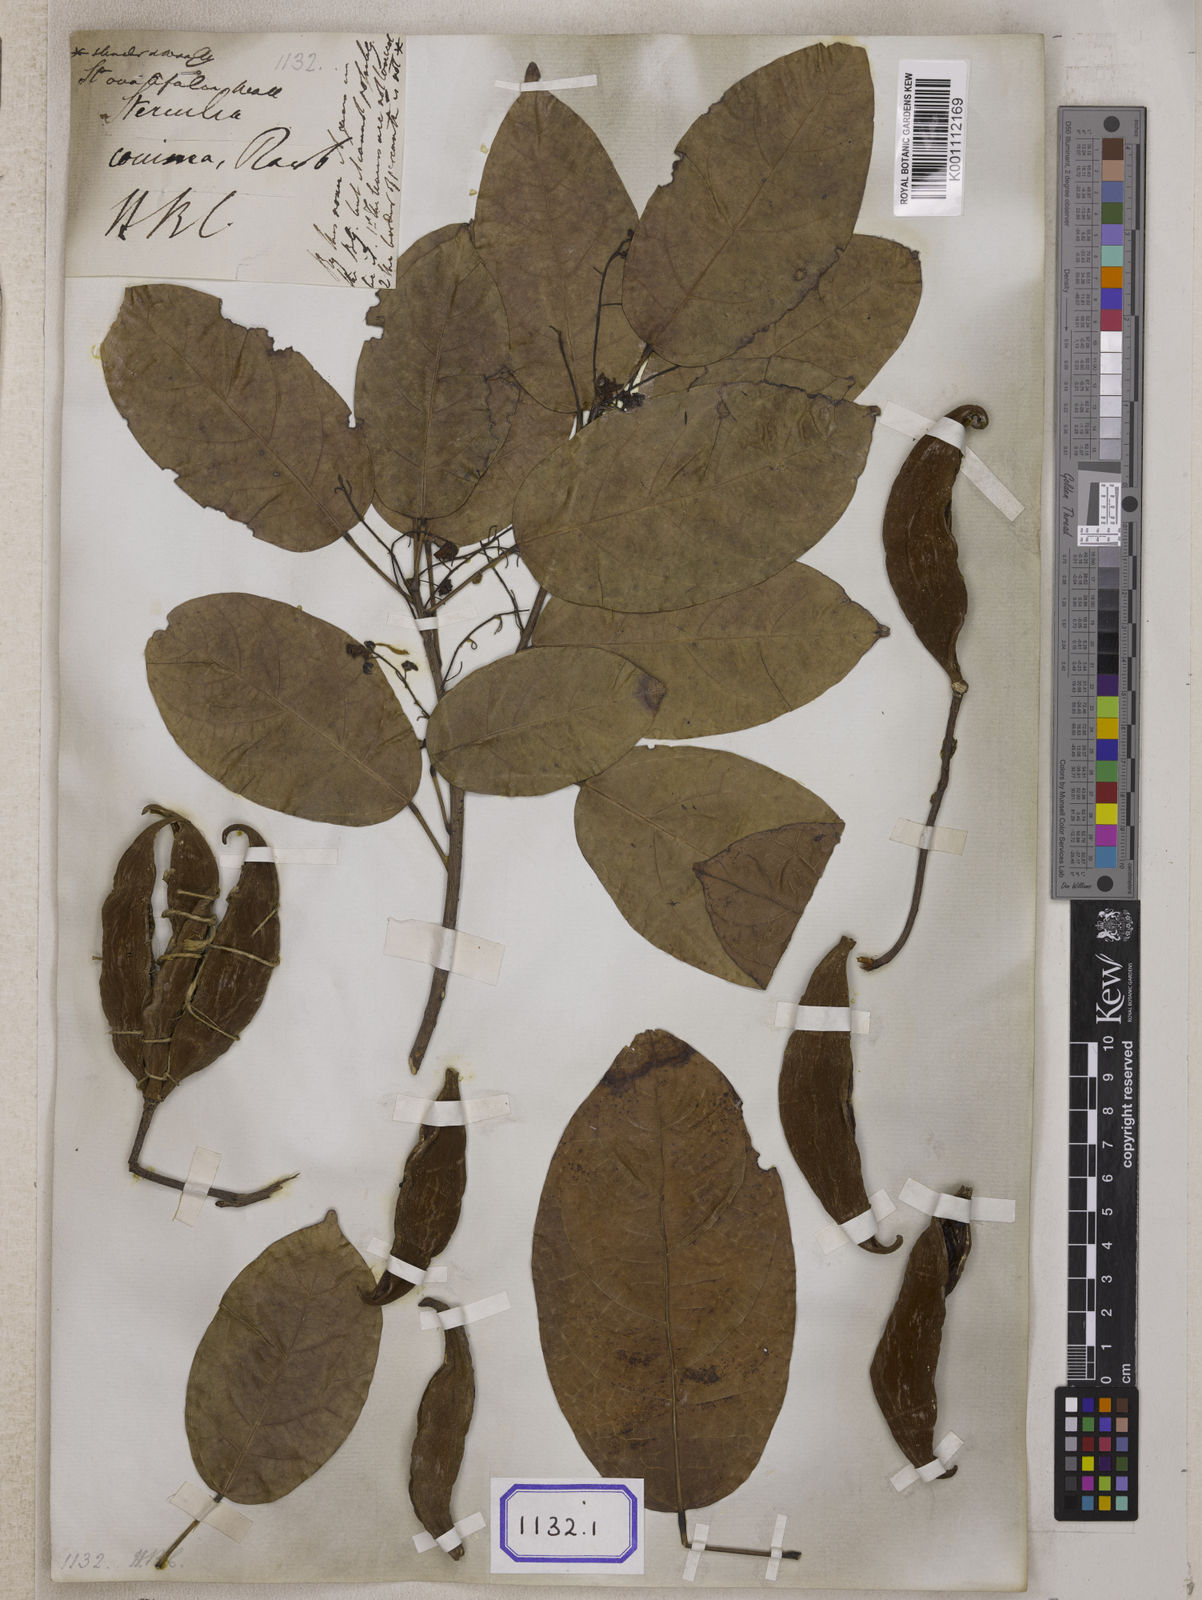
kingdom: Plantae
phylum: Tracheophyta
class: Magnoliopsida
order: Malvales
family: Malvaceae
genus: Sterculia
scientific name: Sterculia lanceifolia
